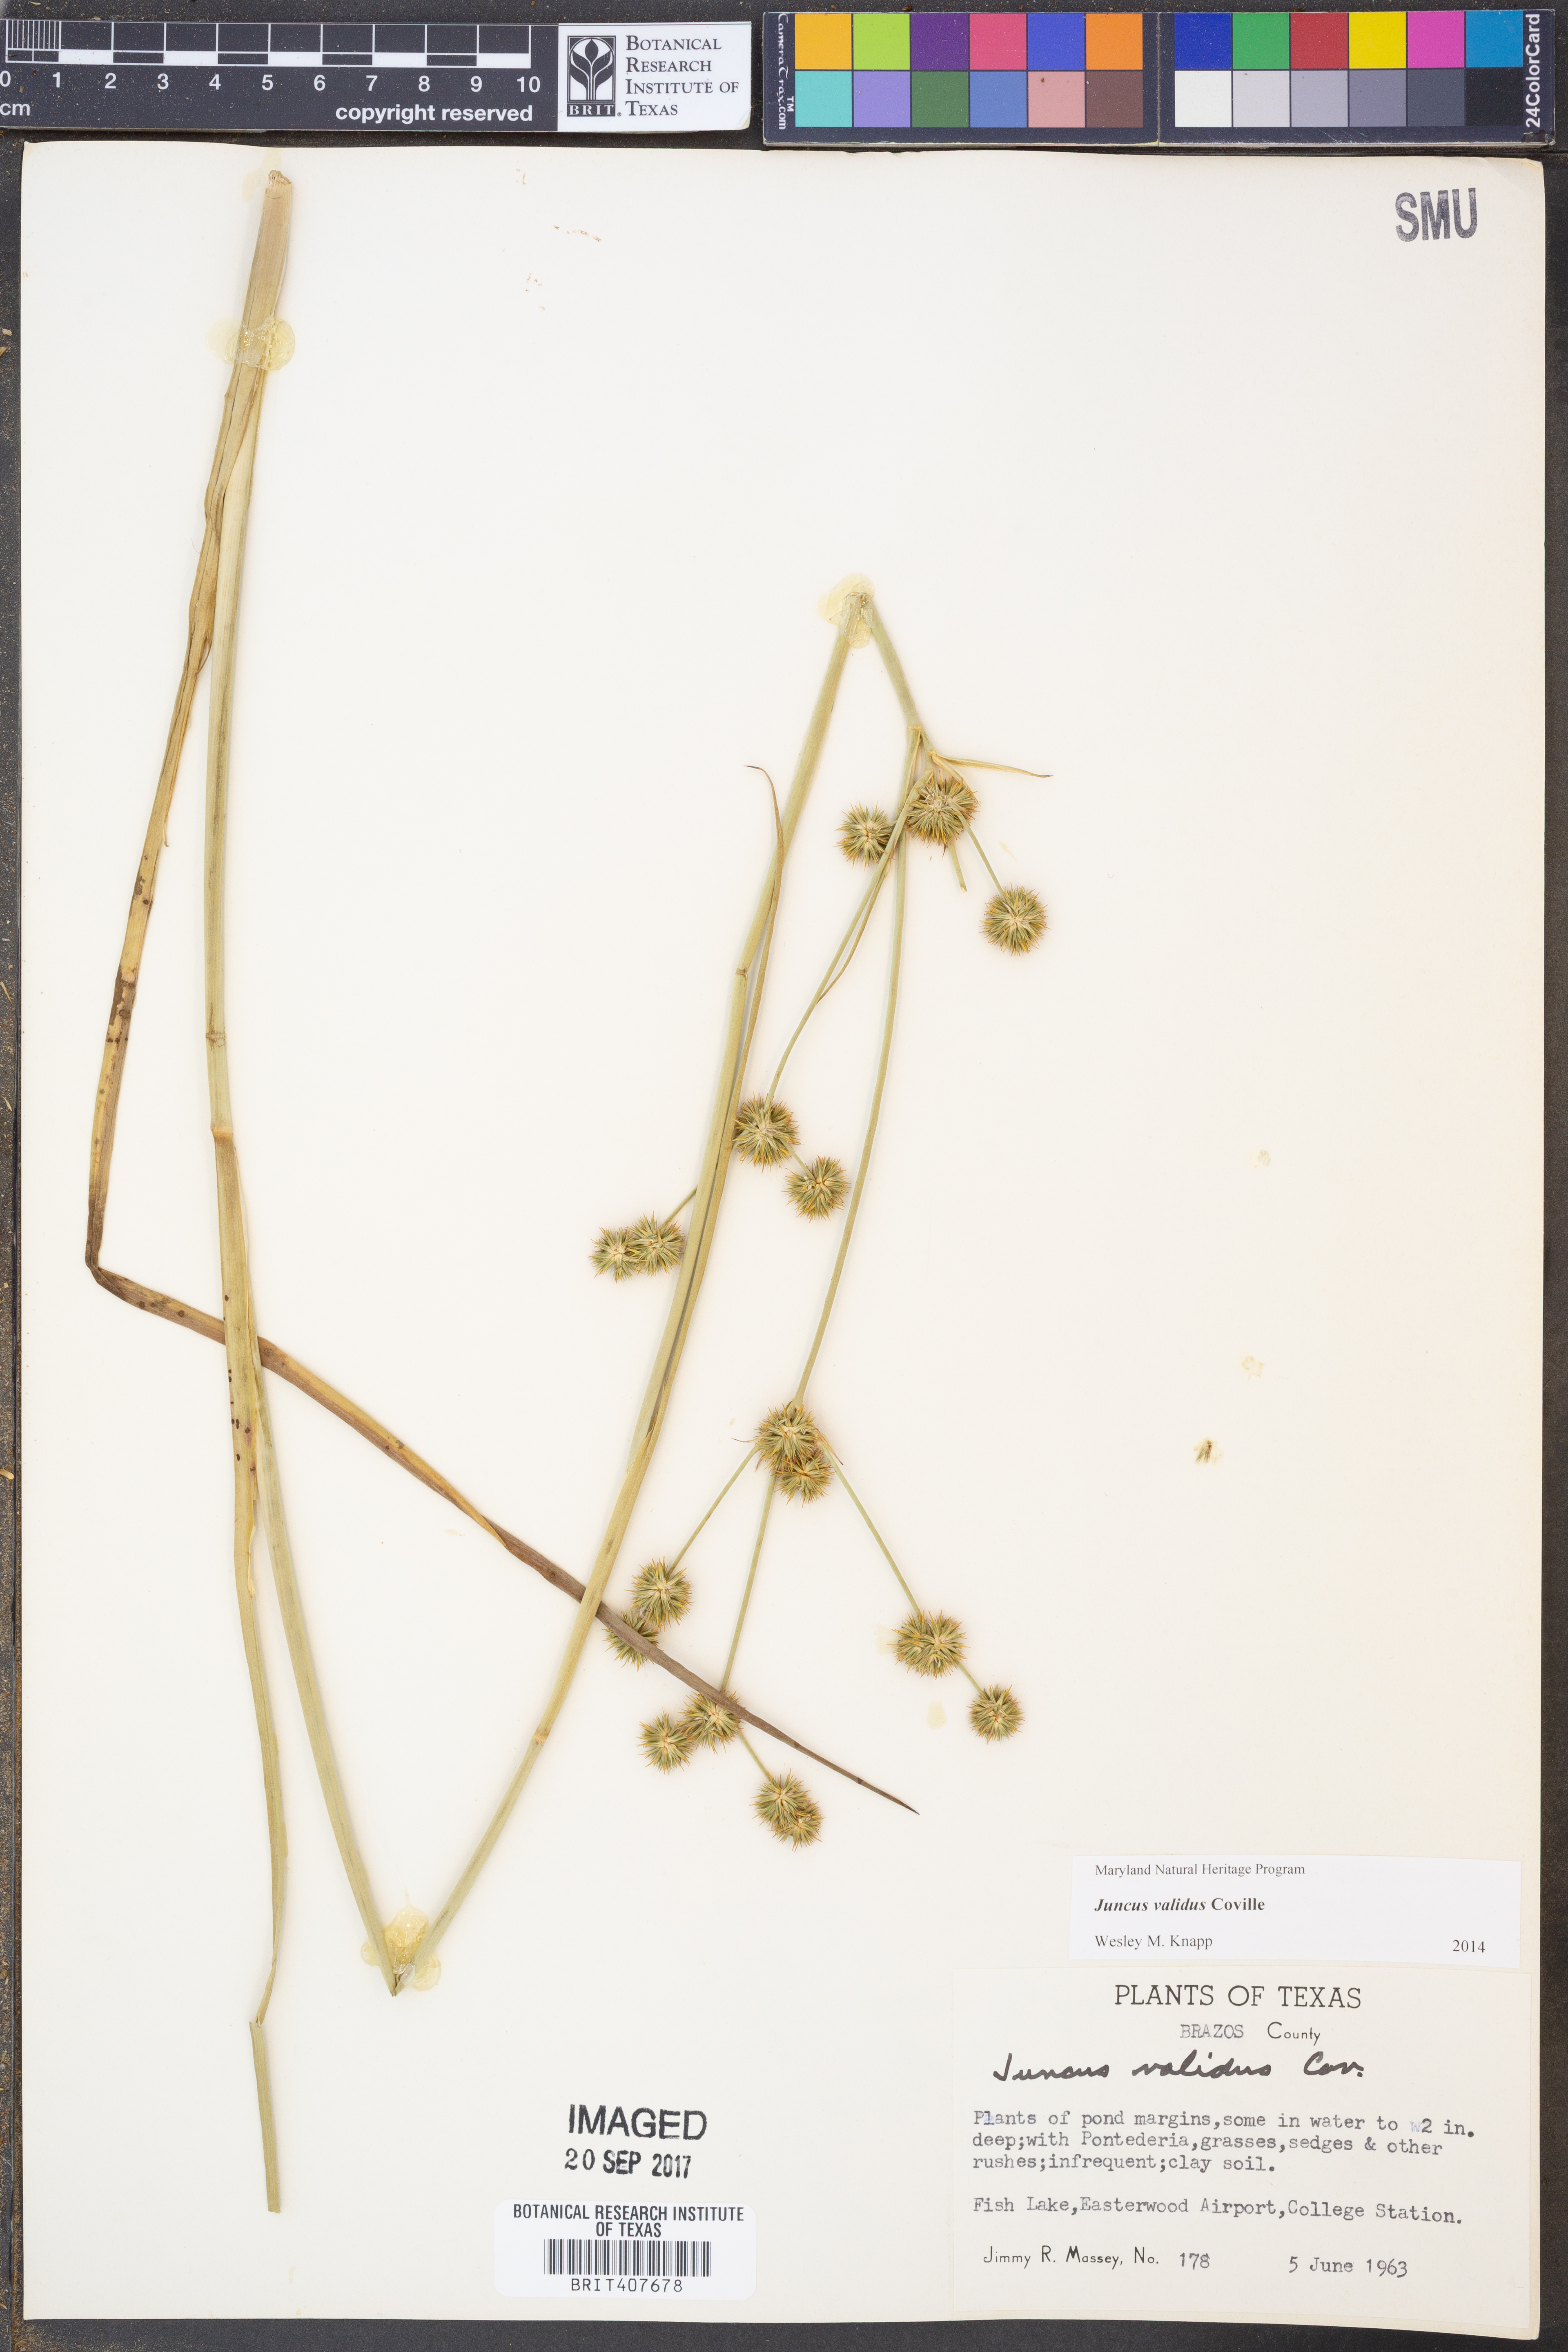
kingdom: Plantae
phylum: Tracheophyta
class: Liliopsida
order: Poales
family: Juncaceae
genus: Juncus
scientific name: Juncus validus
